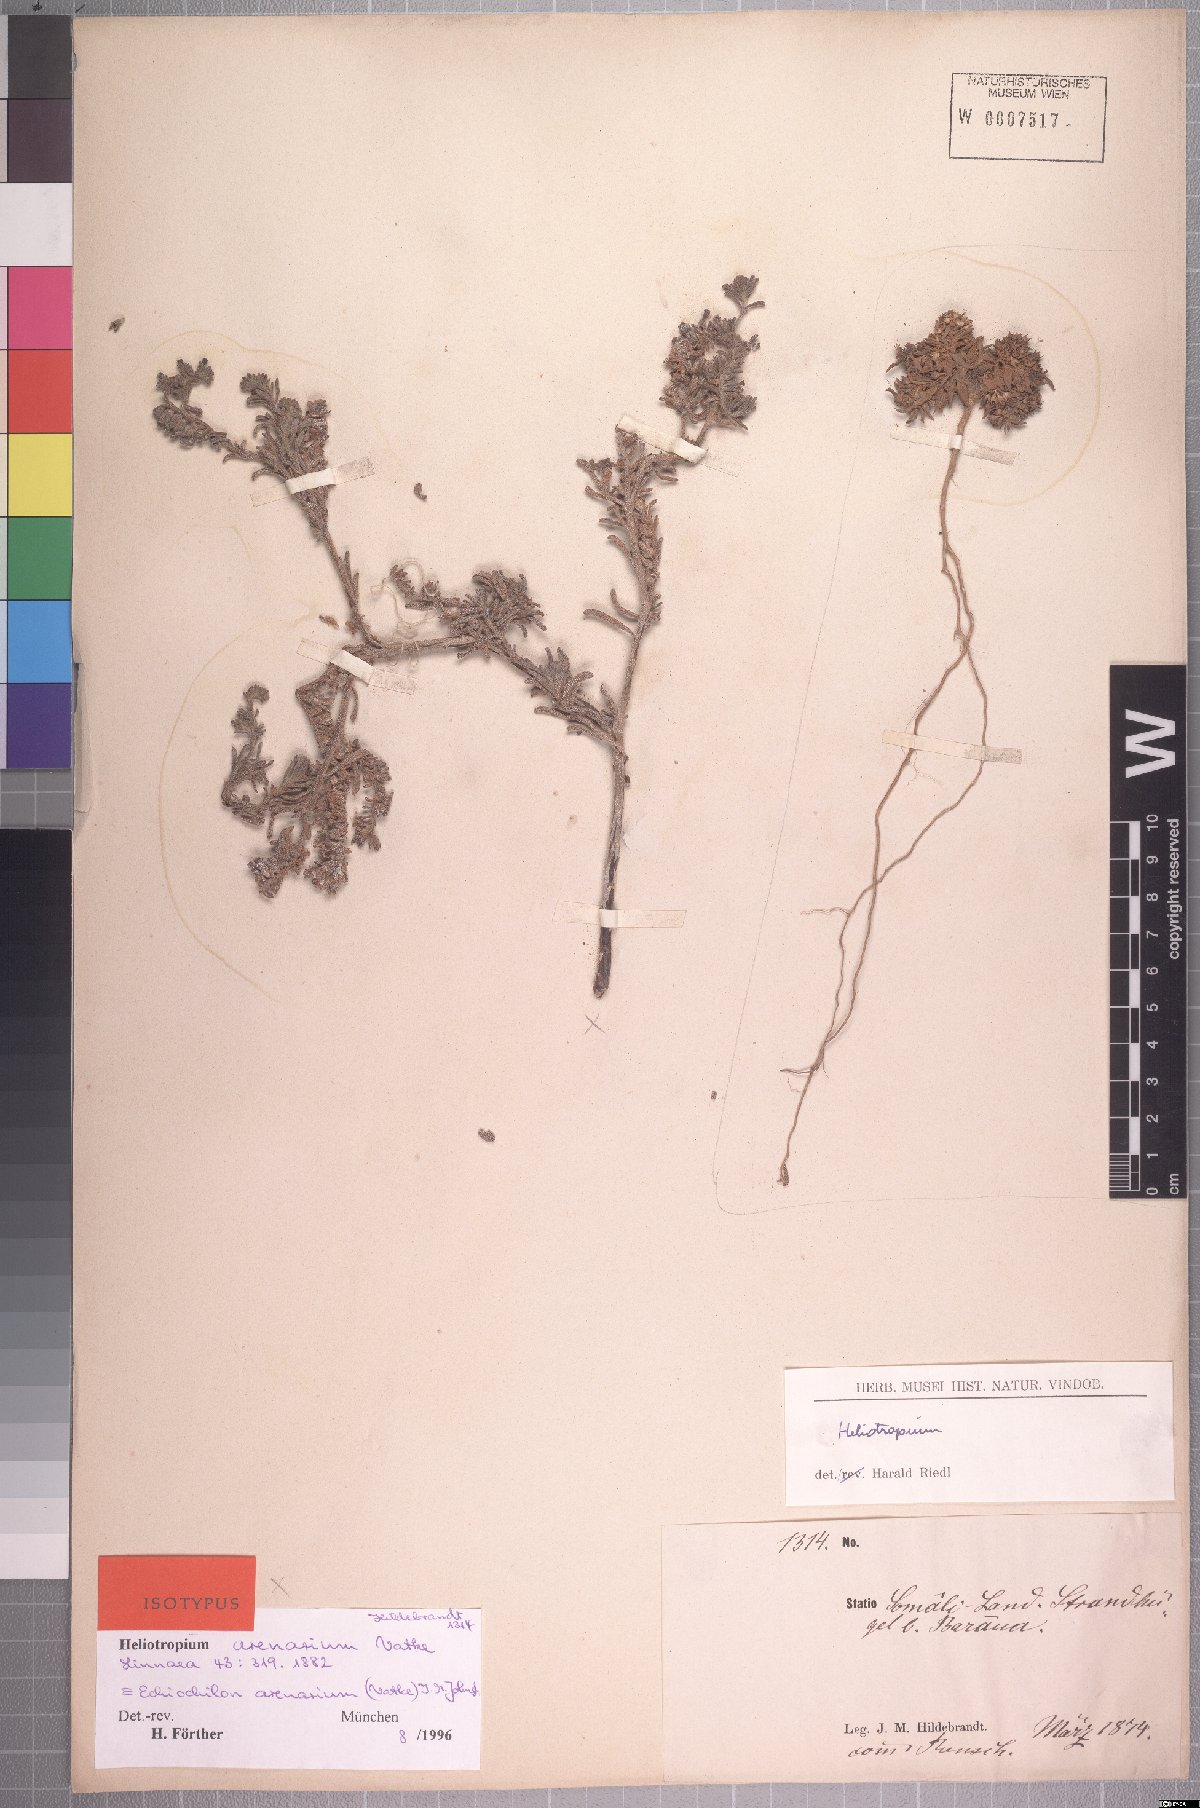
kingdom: Plantae
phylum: Tracheophyta
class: Magnoliopsida
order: Boraginales
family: Boraginaceae
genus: Echiochilon
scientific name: Echiochilon arenarium
